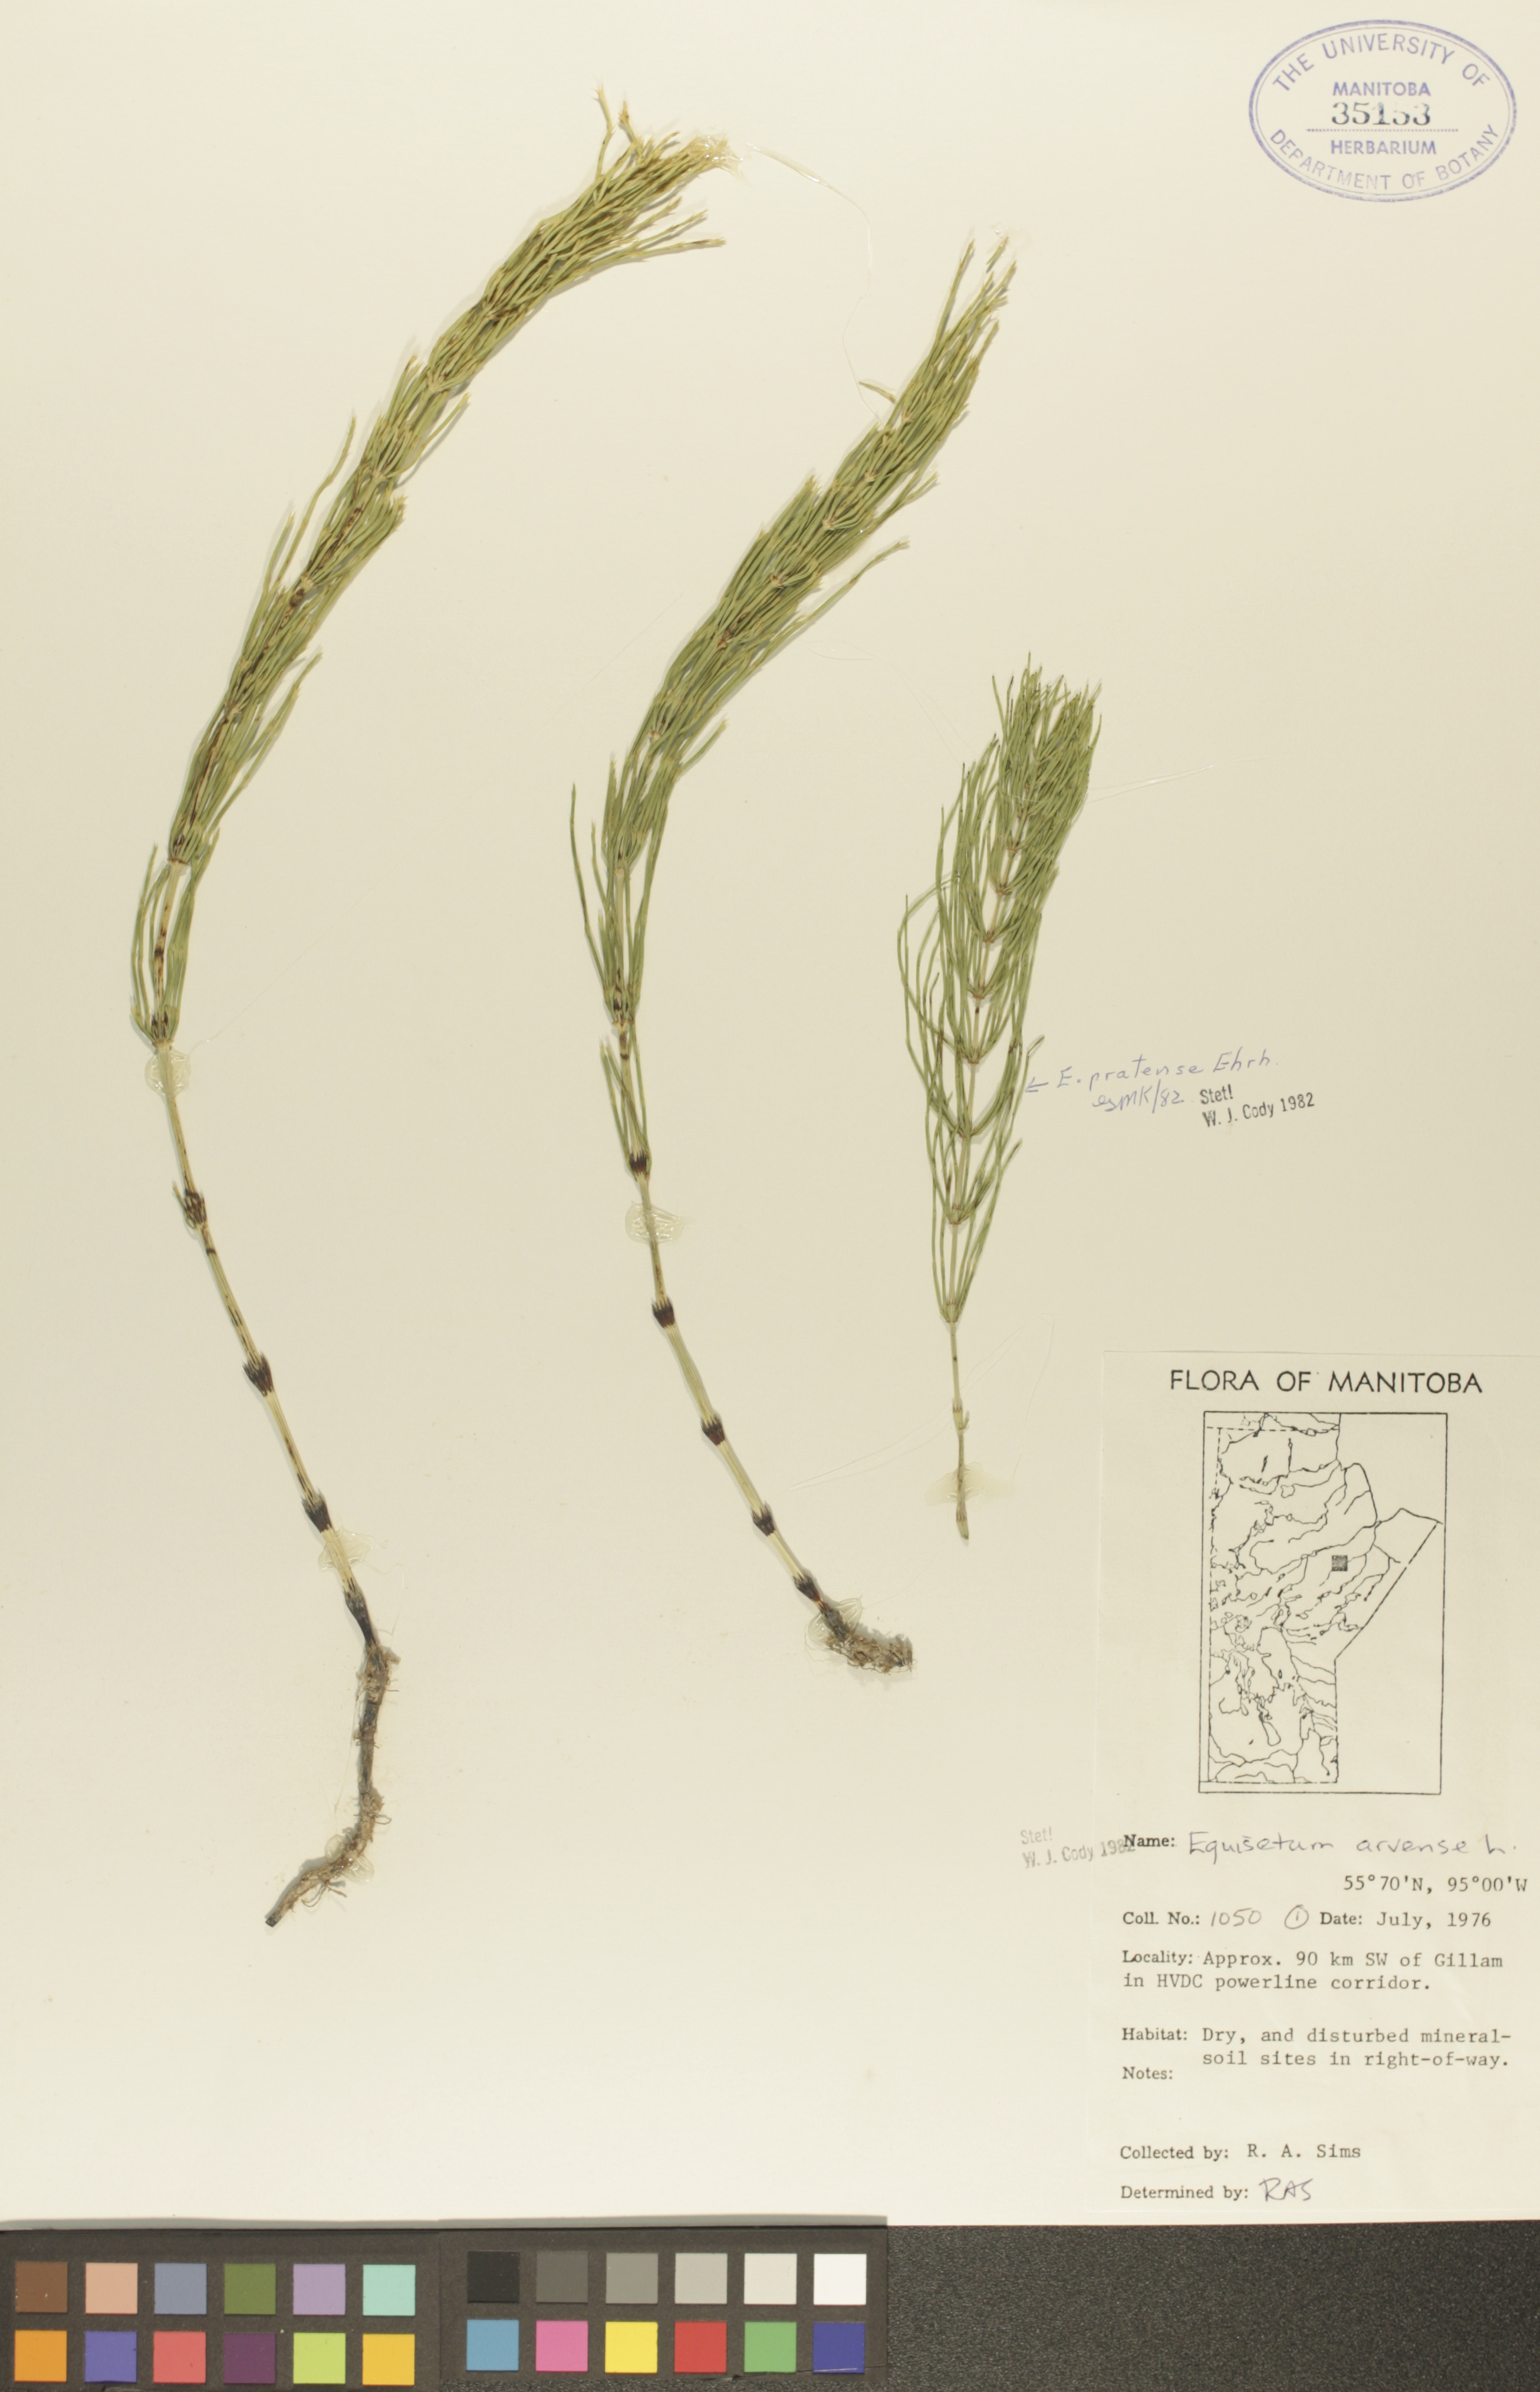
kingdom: Plantae
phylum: Tracheophyta
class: Polypodiopsida
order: Equisetales
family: Equisetaceae
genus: Equisetum
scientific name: Equisetum arvense
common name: Field horsetail
